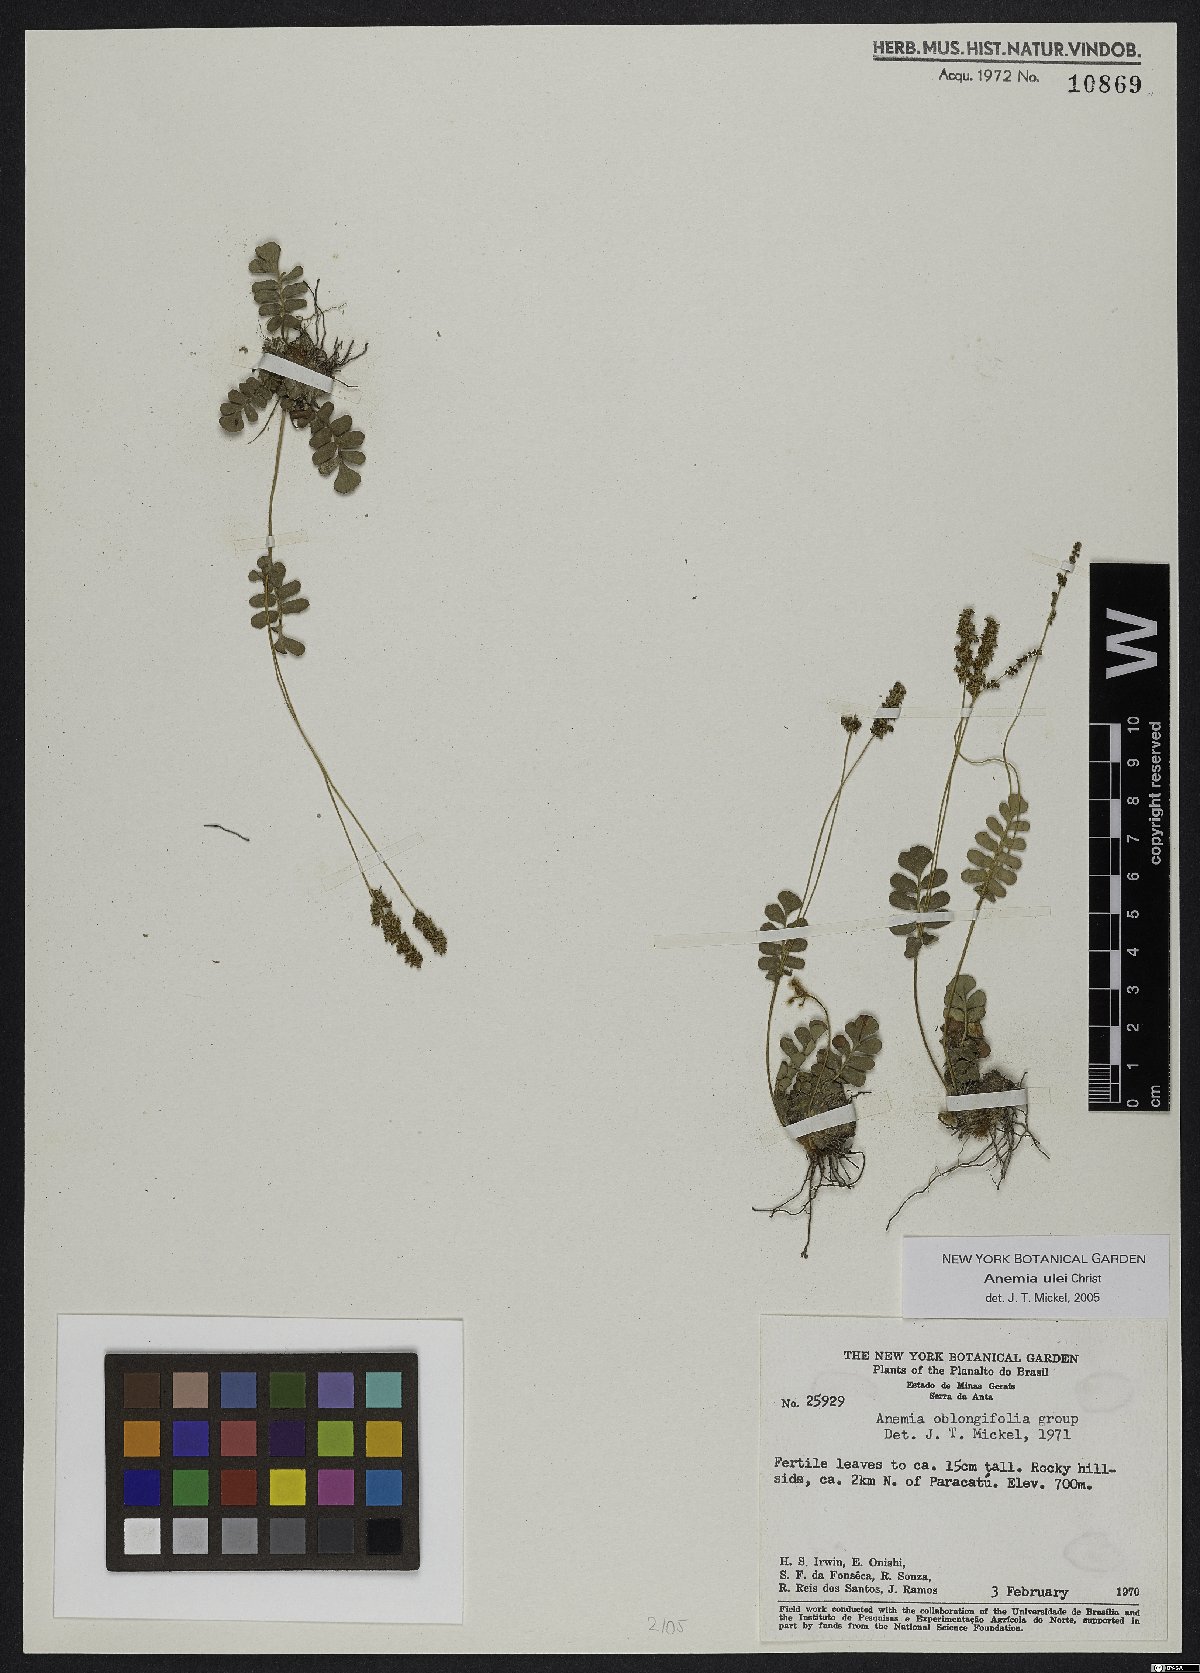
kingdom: Plantae
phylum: Tracheophyta
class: Polypodiopsida
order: Schizaeales
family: Anemiaceae
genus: Anemia
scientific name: Anemia oblongifolia
